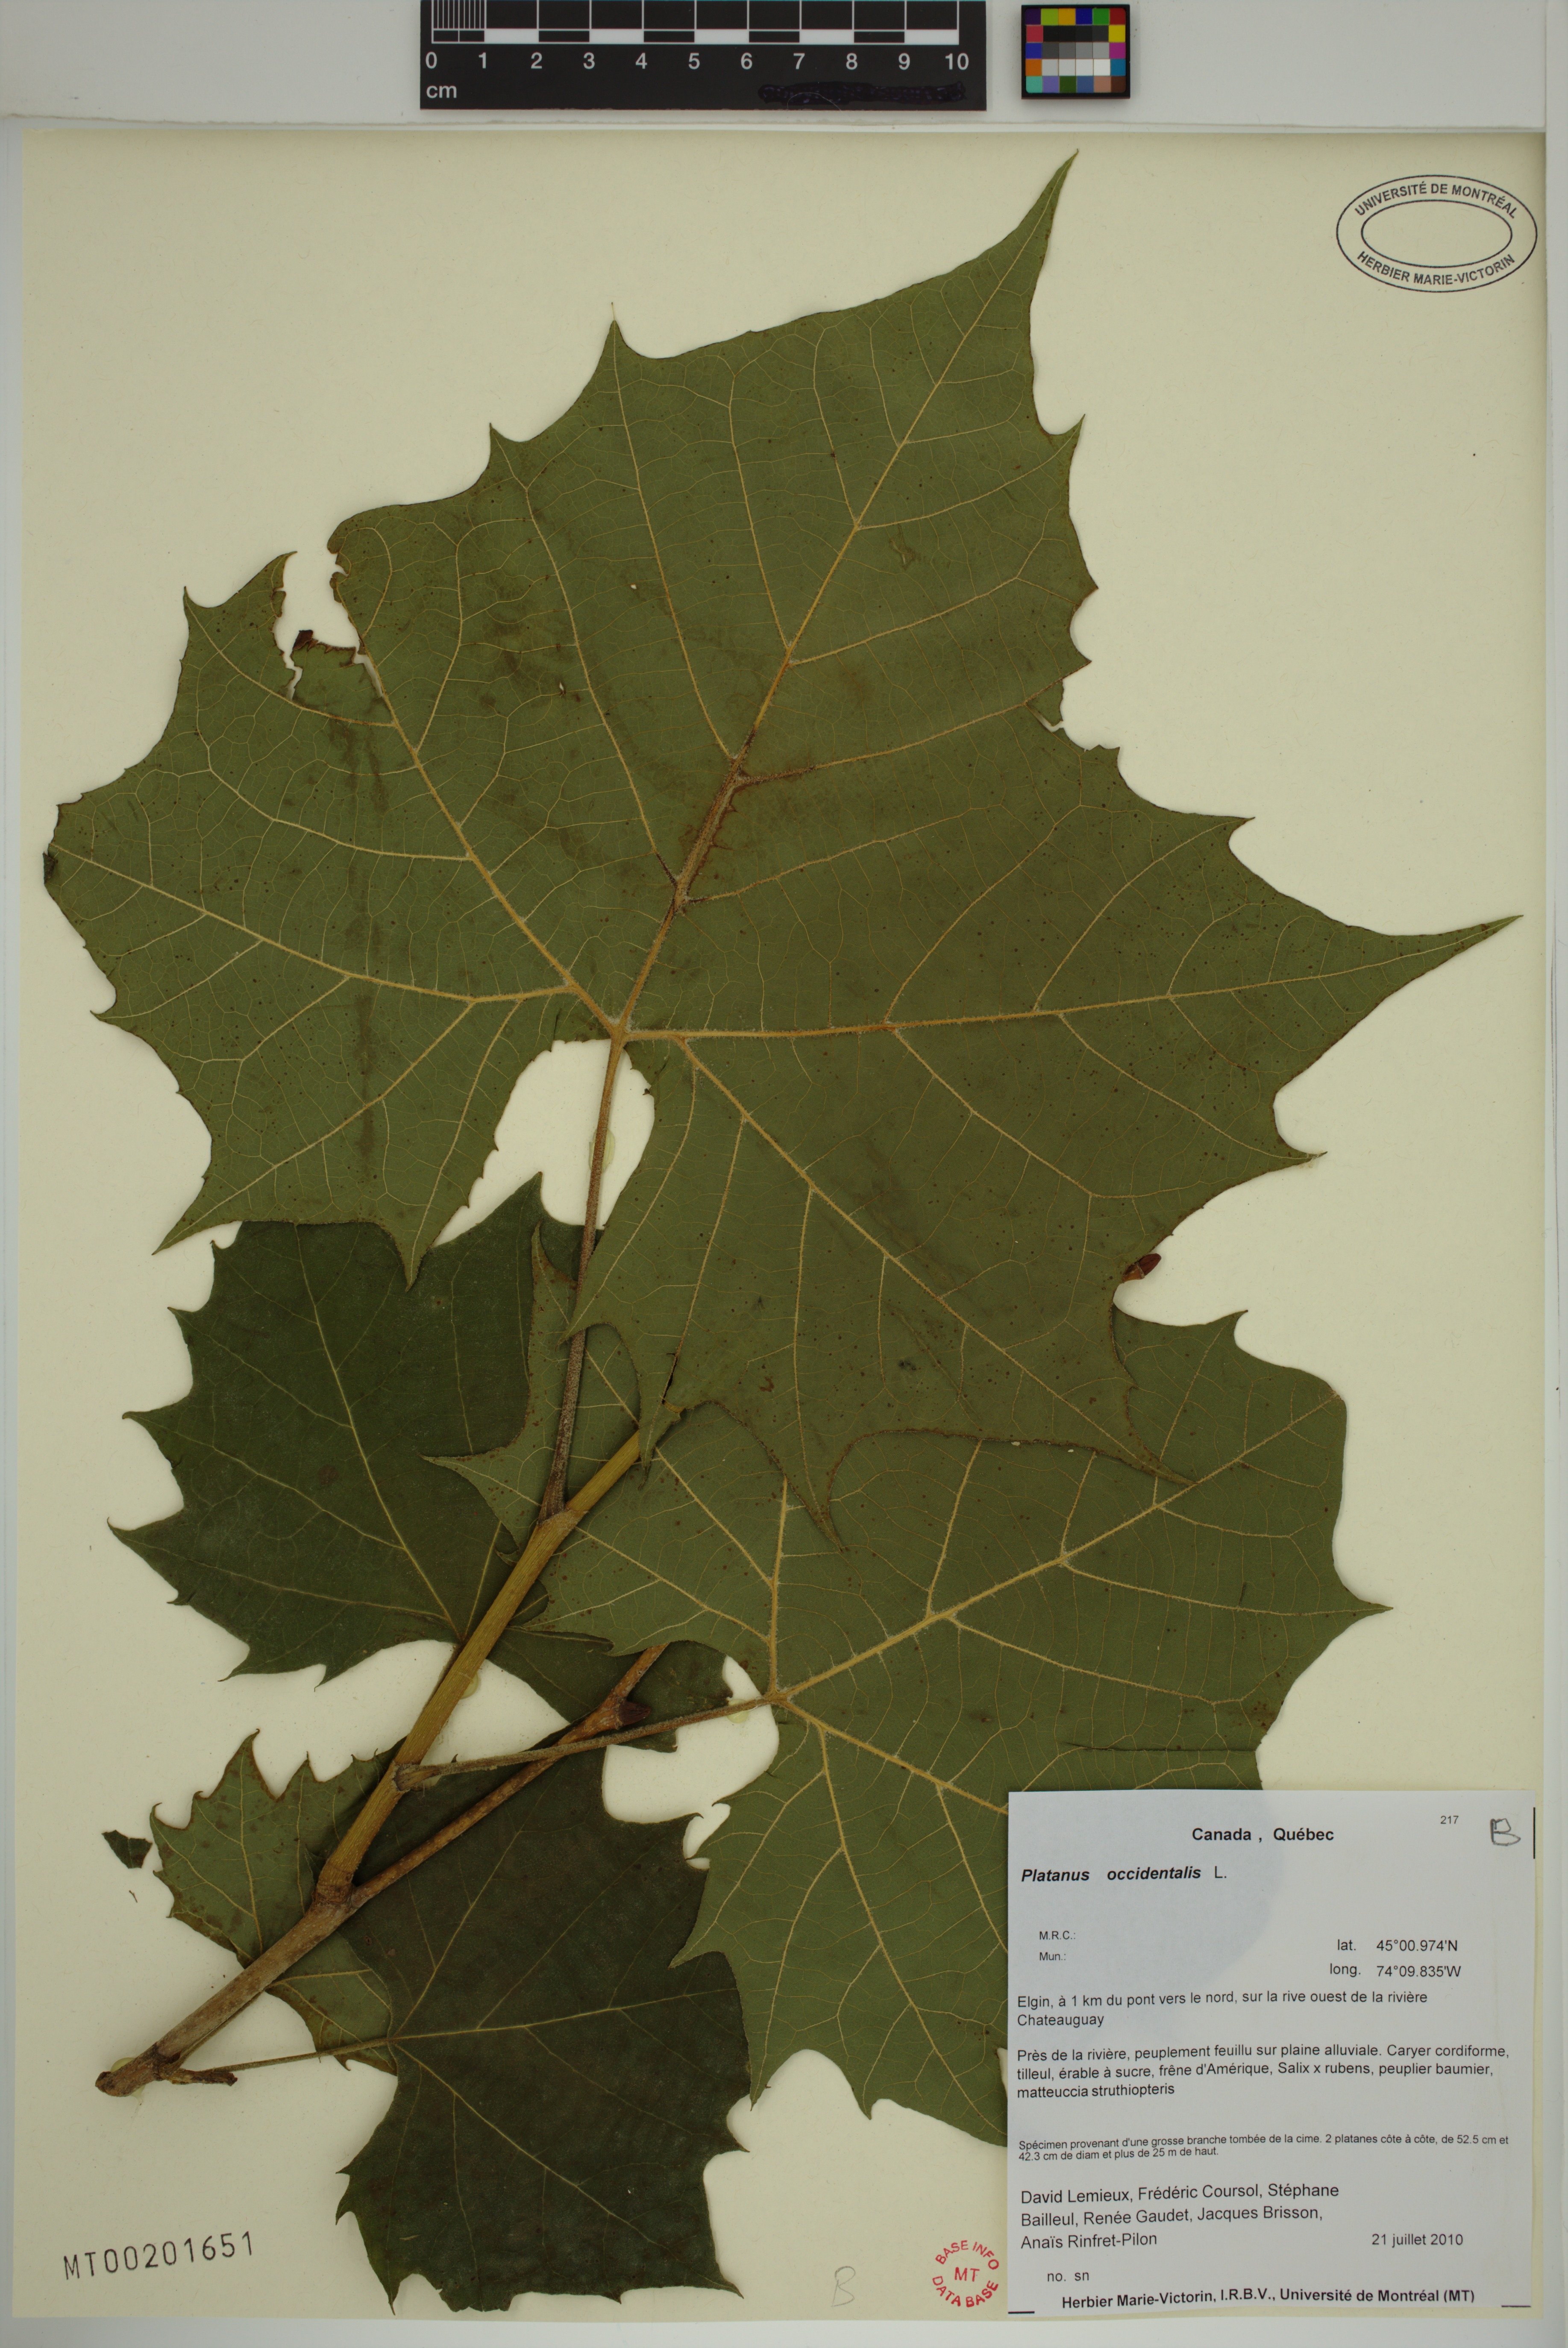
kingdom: Plantae
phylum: Tracheophyta
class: Magnoliopsida
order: Proteales
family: Platanaceae
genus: Platanus
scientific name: Platanus occidentalis
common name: American sycamore
